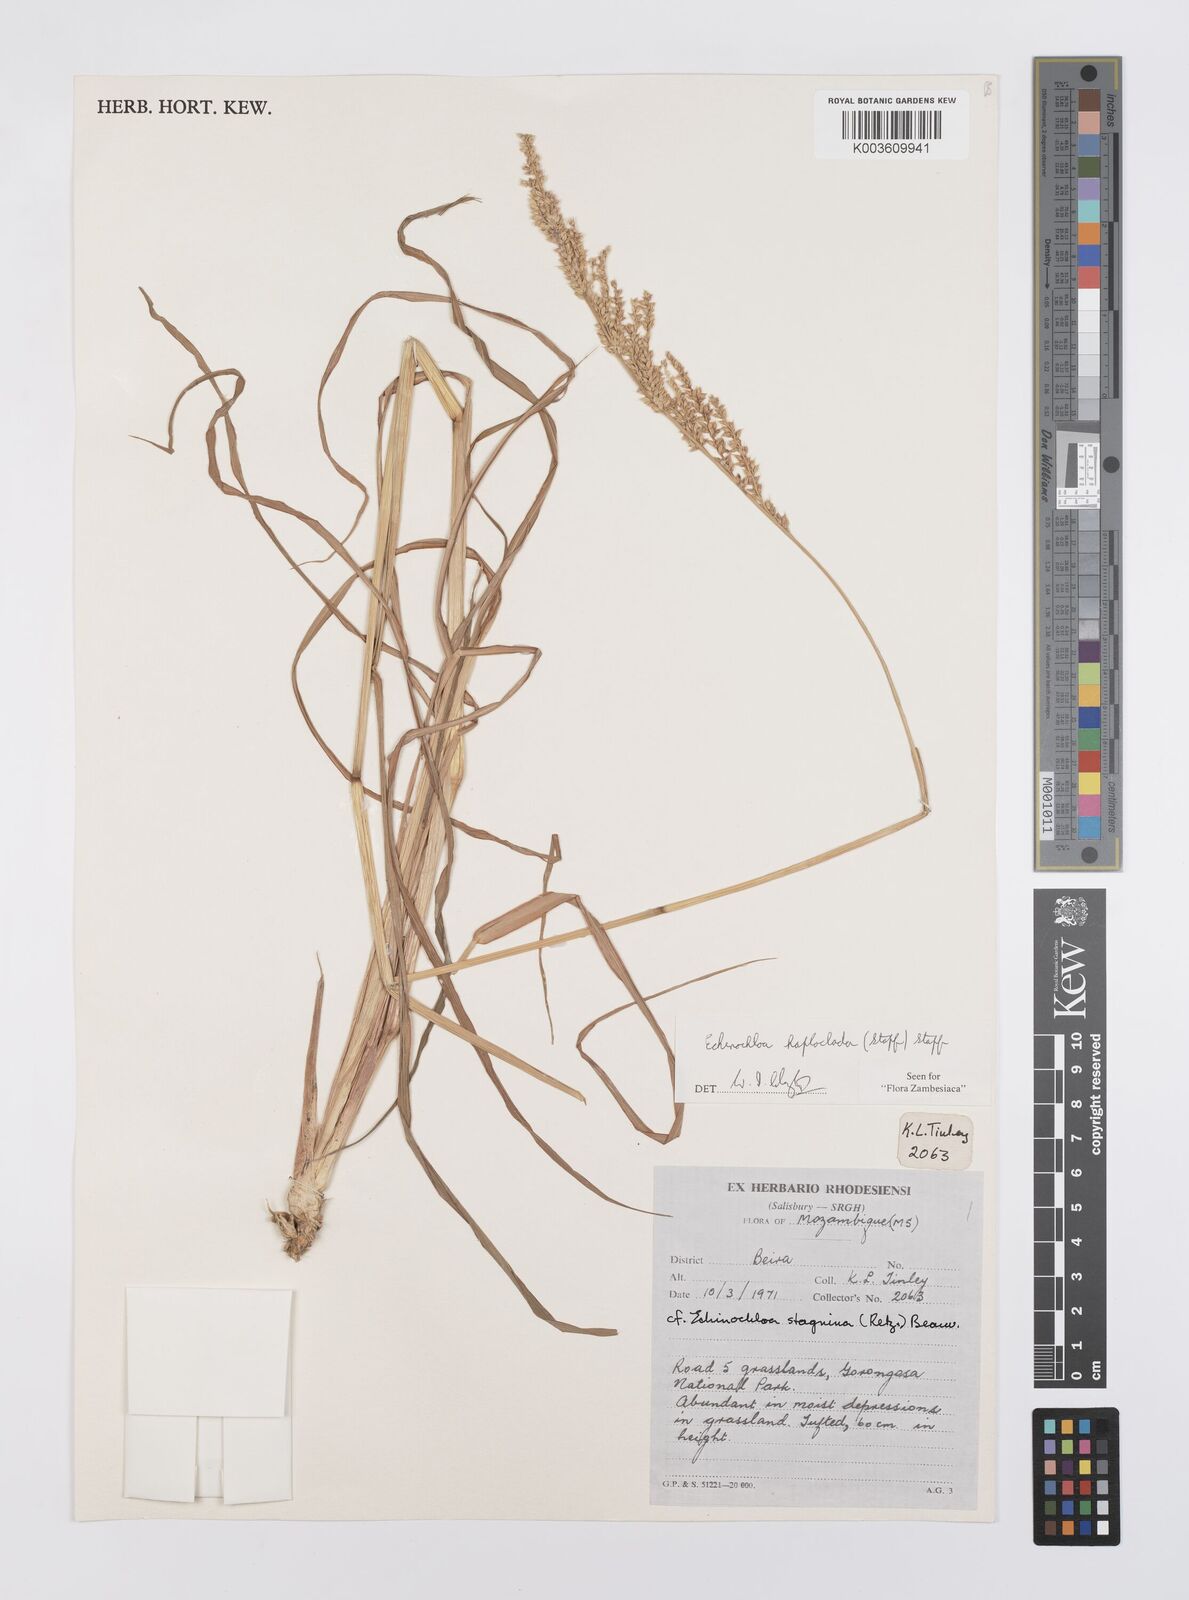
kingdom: Plantae
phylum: Tracheophyta
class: Liliopsida
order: Poales
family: Poaceae
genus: Echinochloa
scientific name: Echinochloa haploclada
